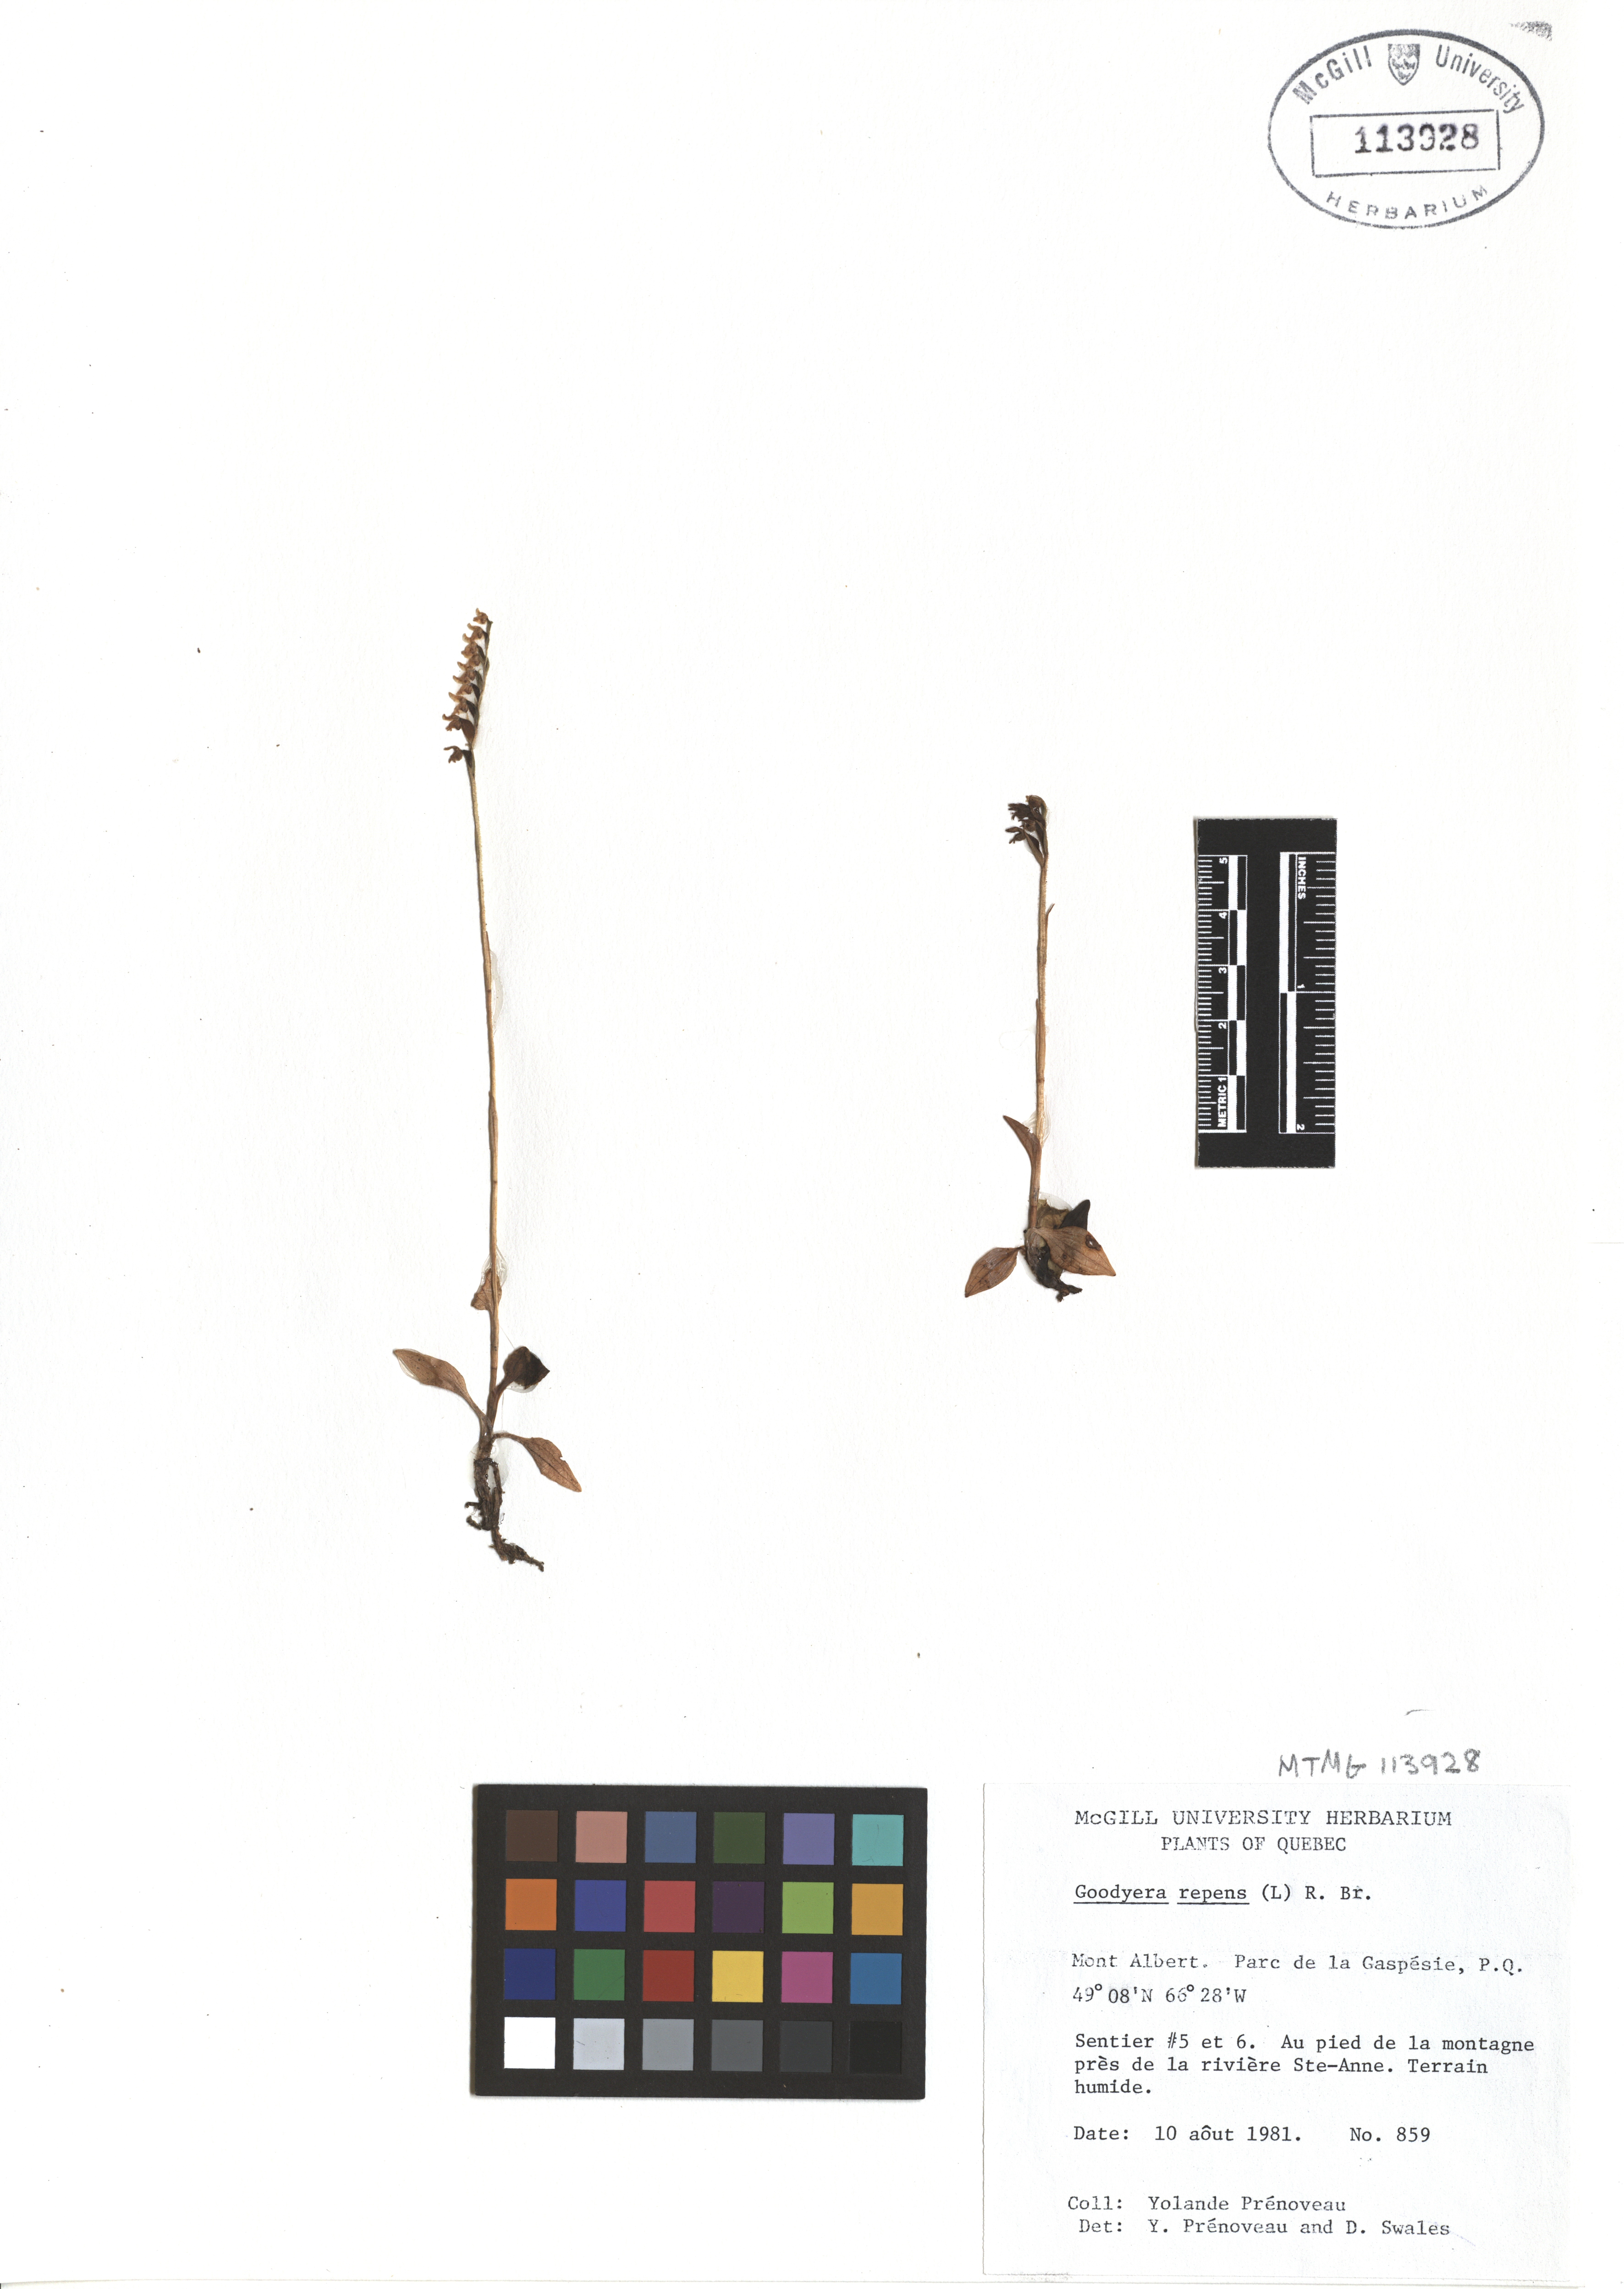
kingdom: Plantae
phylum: Tracheophyta
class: Liliopsida
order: Asparagales
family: Orchidaceae
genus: Goodyera
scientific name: Goodyera repens
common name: Creeping lady's-tresses
